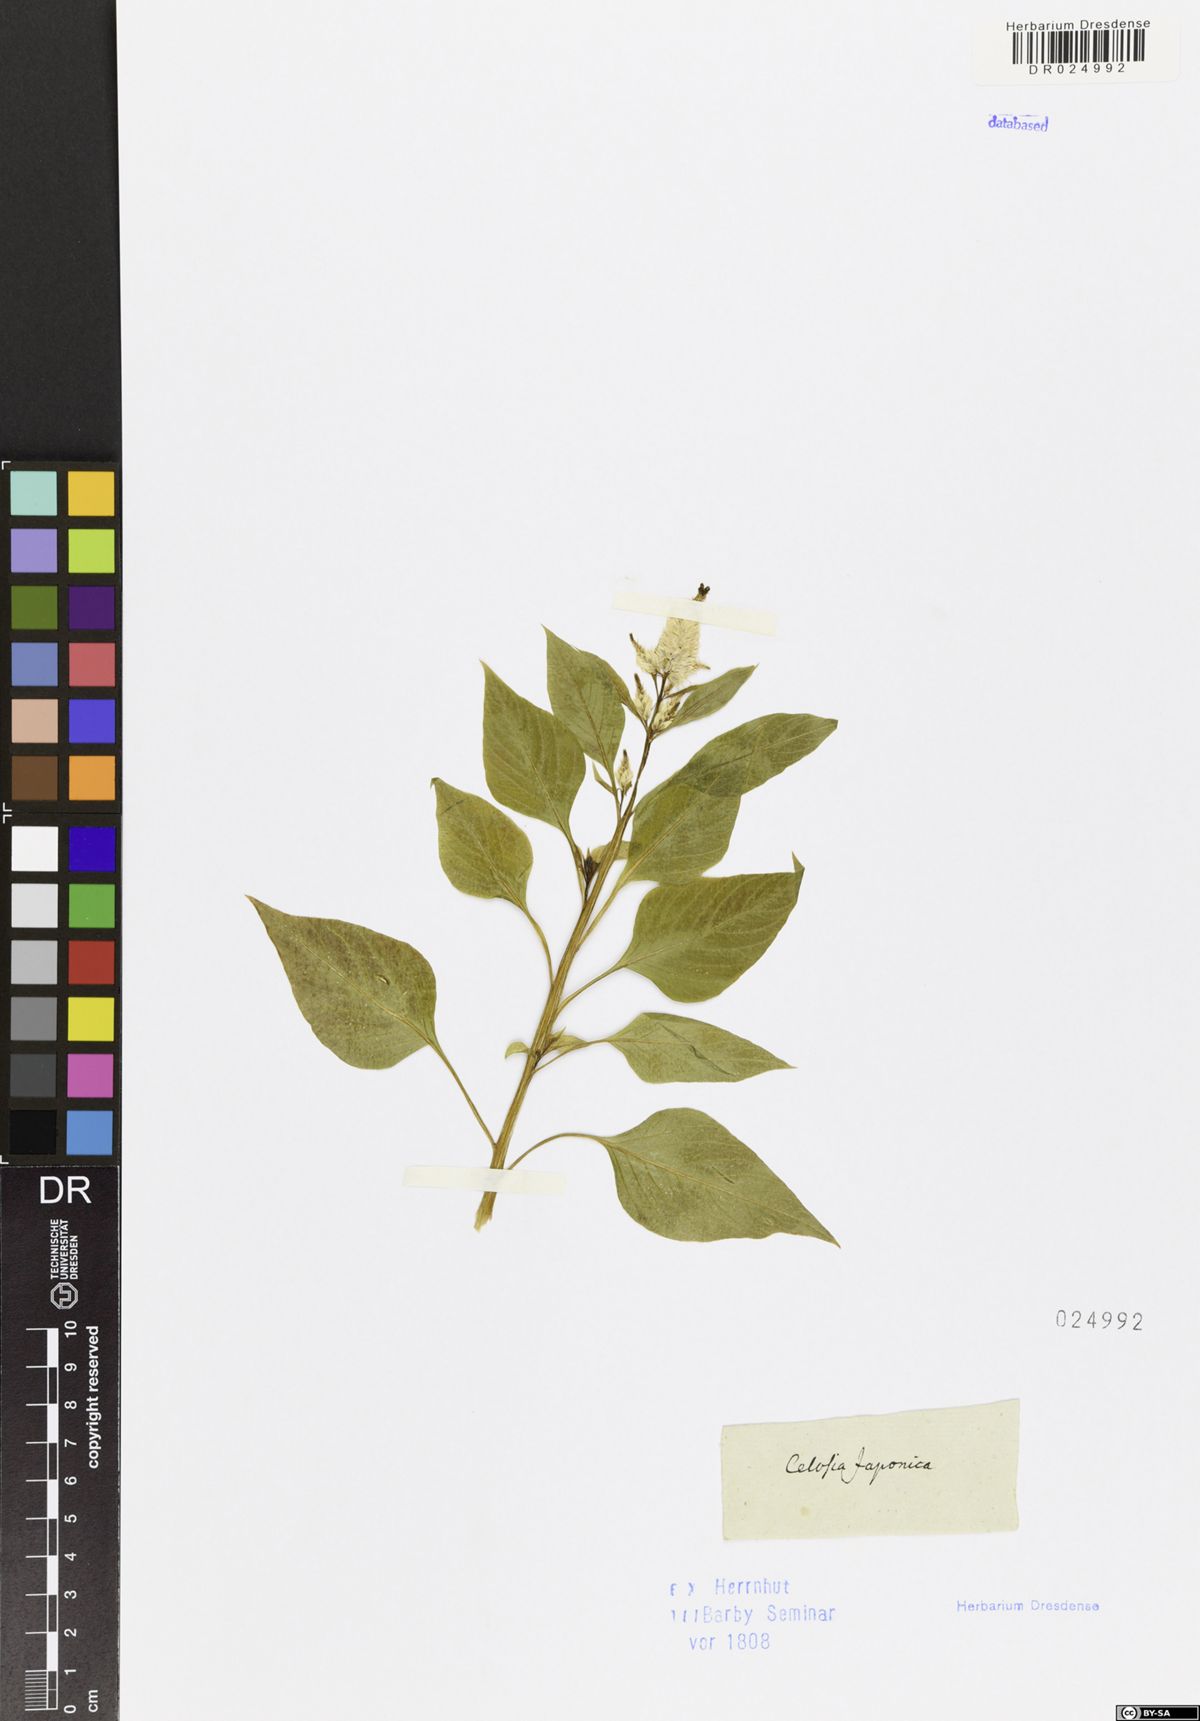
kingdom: Plantae
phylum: Tracheophyta
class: Magnoliopsida
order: Caryophyllales
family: Amaranthaceae
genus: Celosia
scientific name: Celosia argentea
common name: Feather cockscomb
